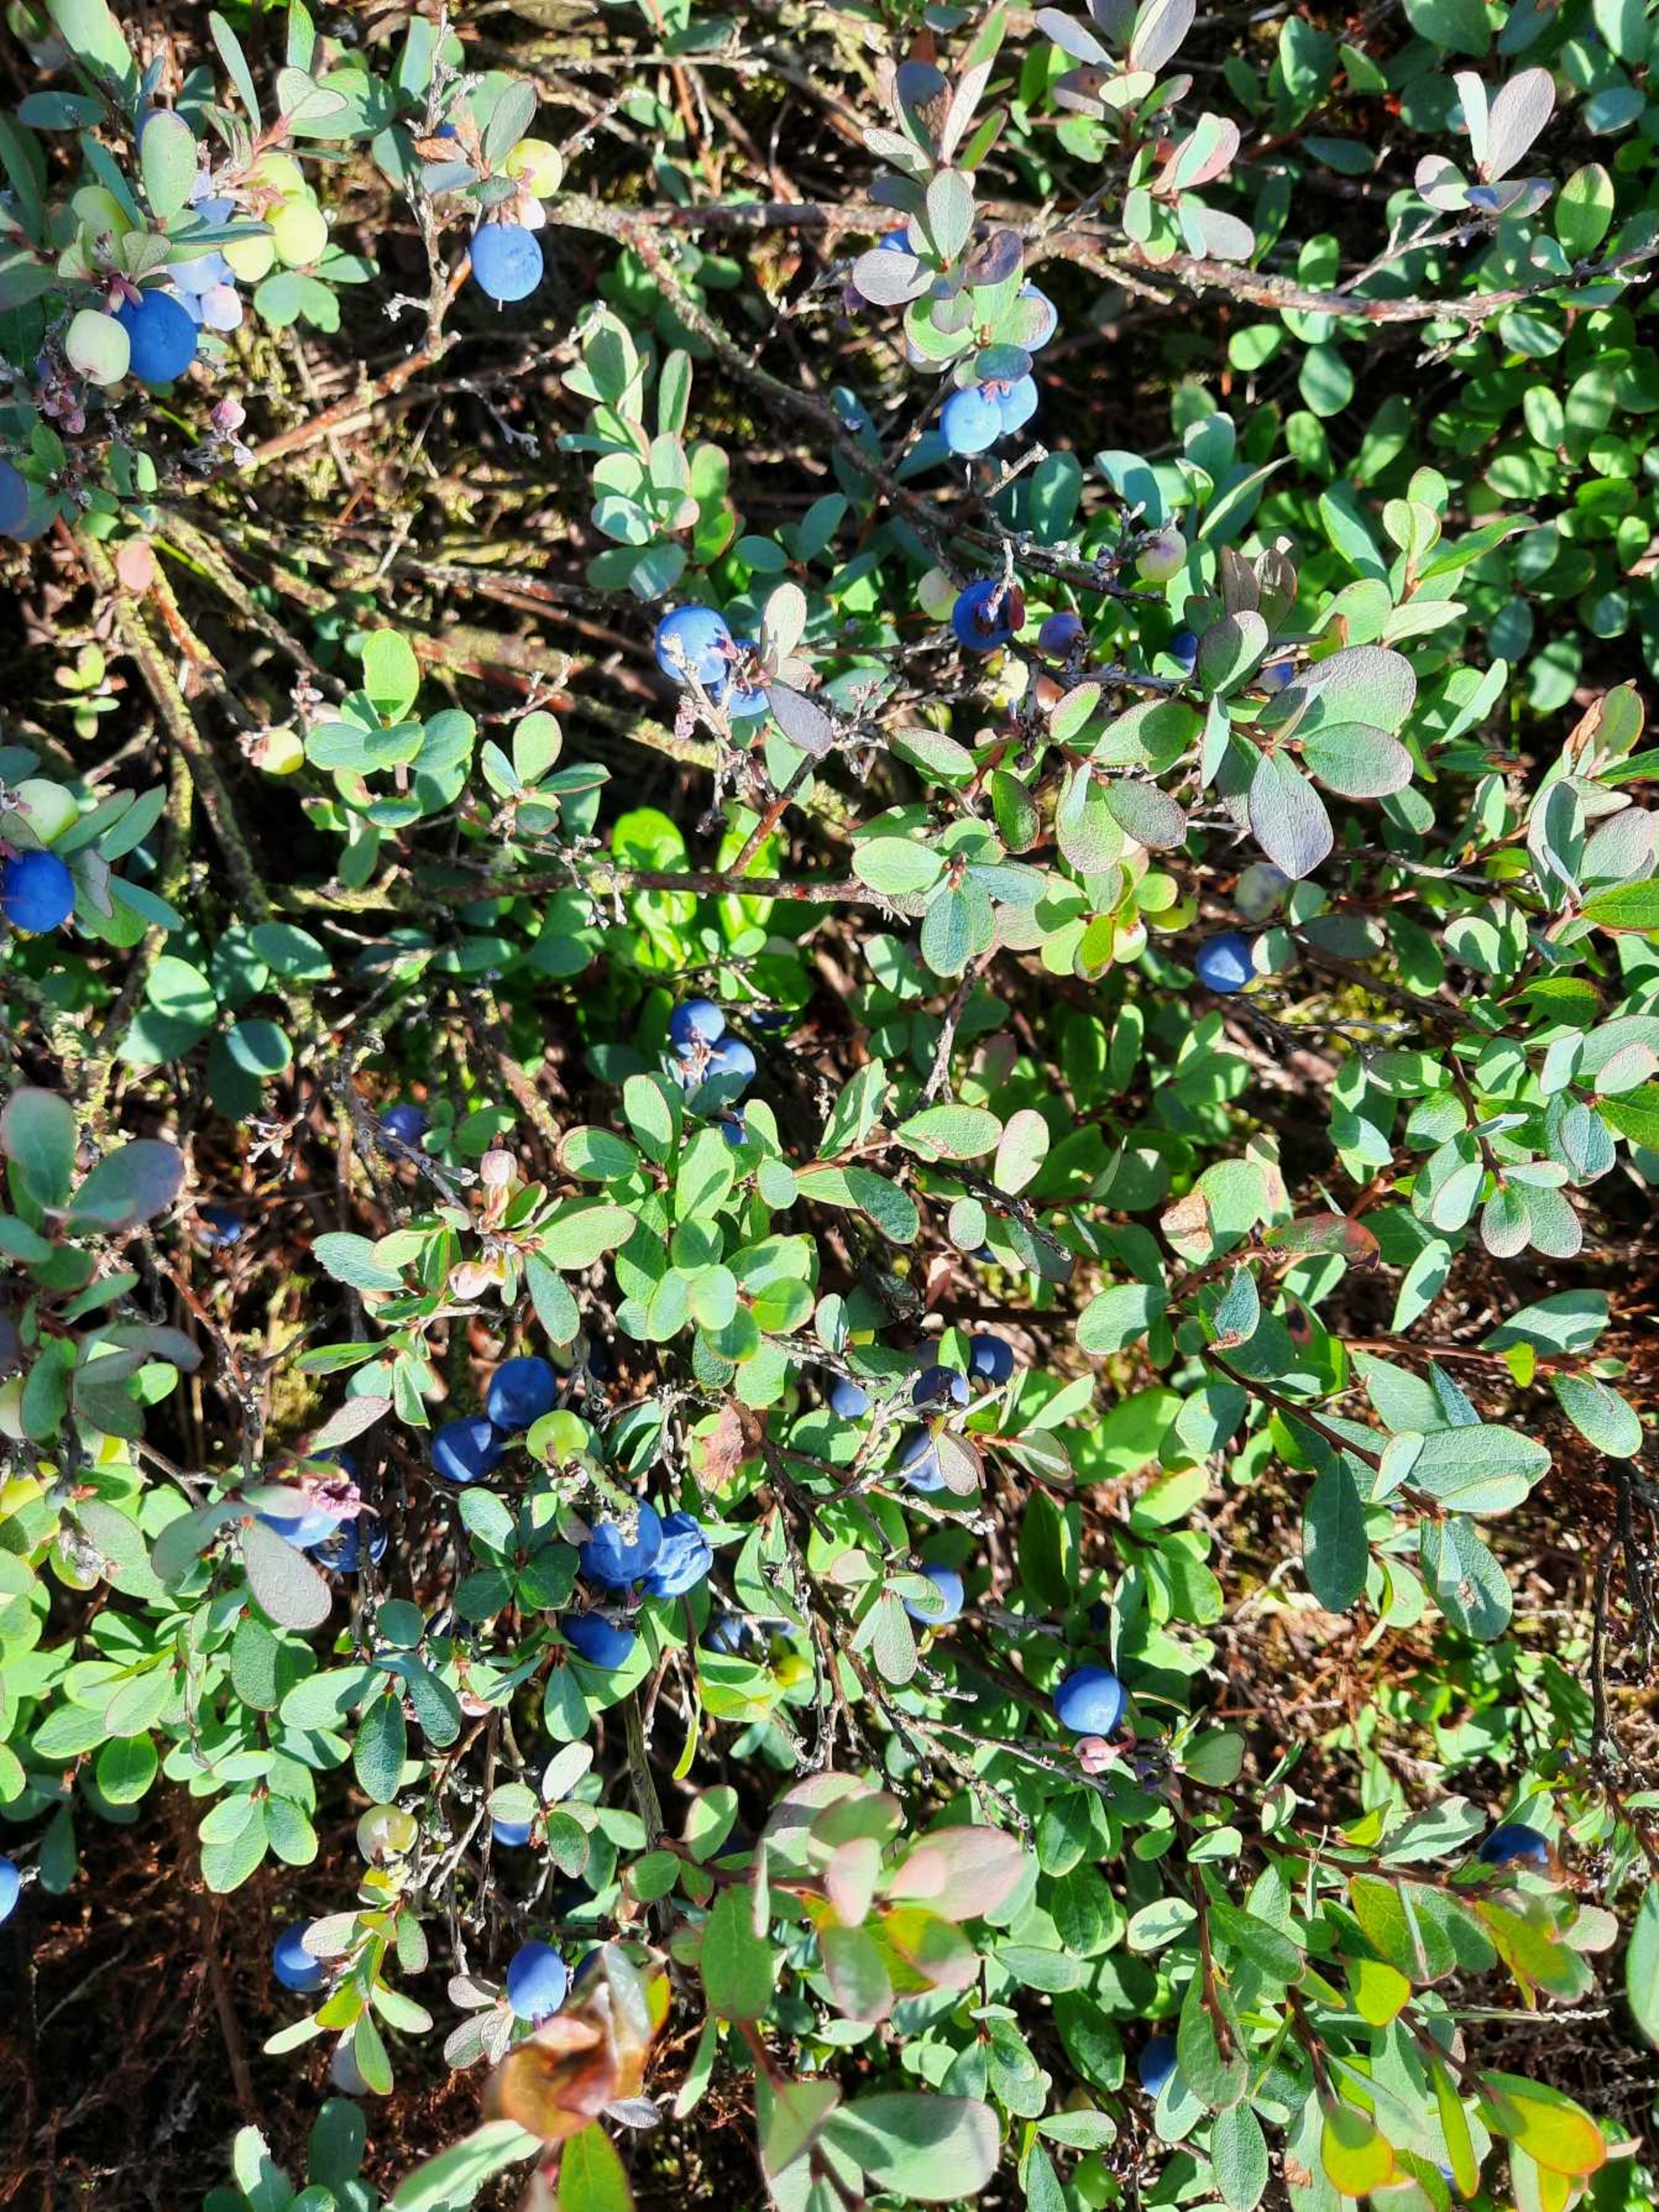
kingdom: Plantae
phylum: Tracheophyta
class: Magnoliopsida
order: Ericales
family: Ericaceae
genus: Vaccinium
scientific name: Vaccinium uliginosum
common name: Mose-bølle
